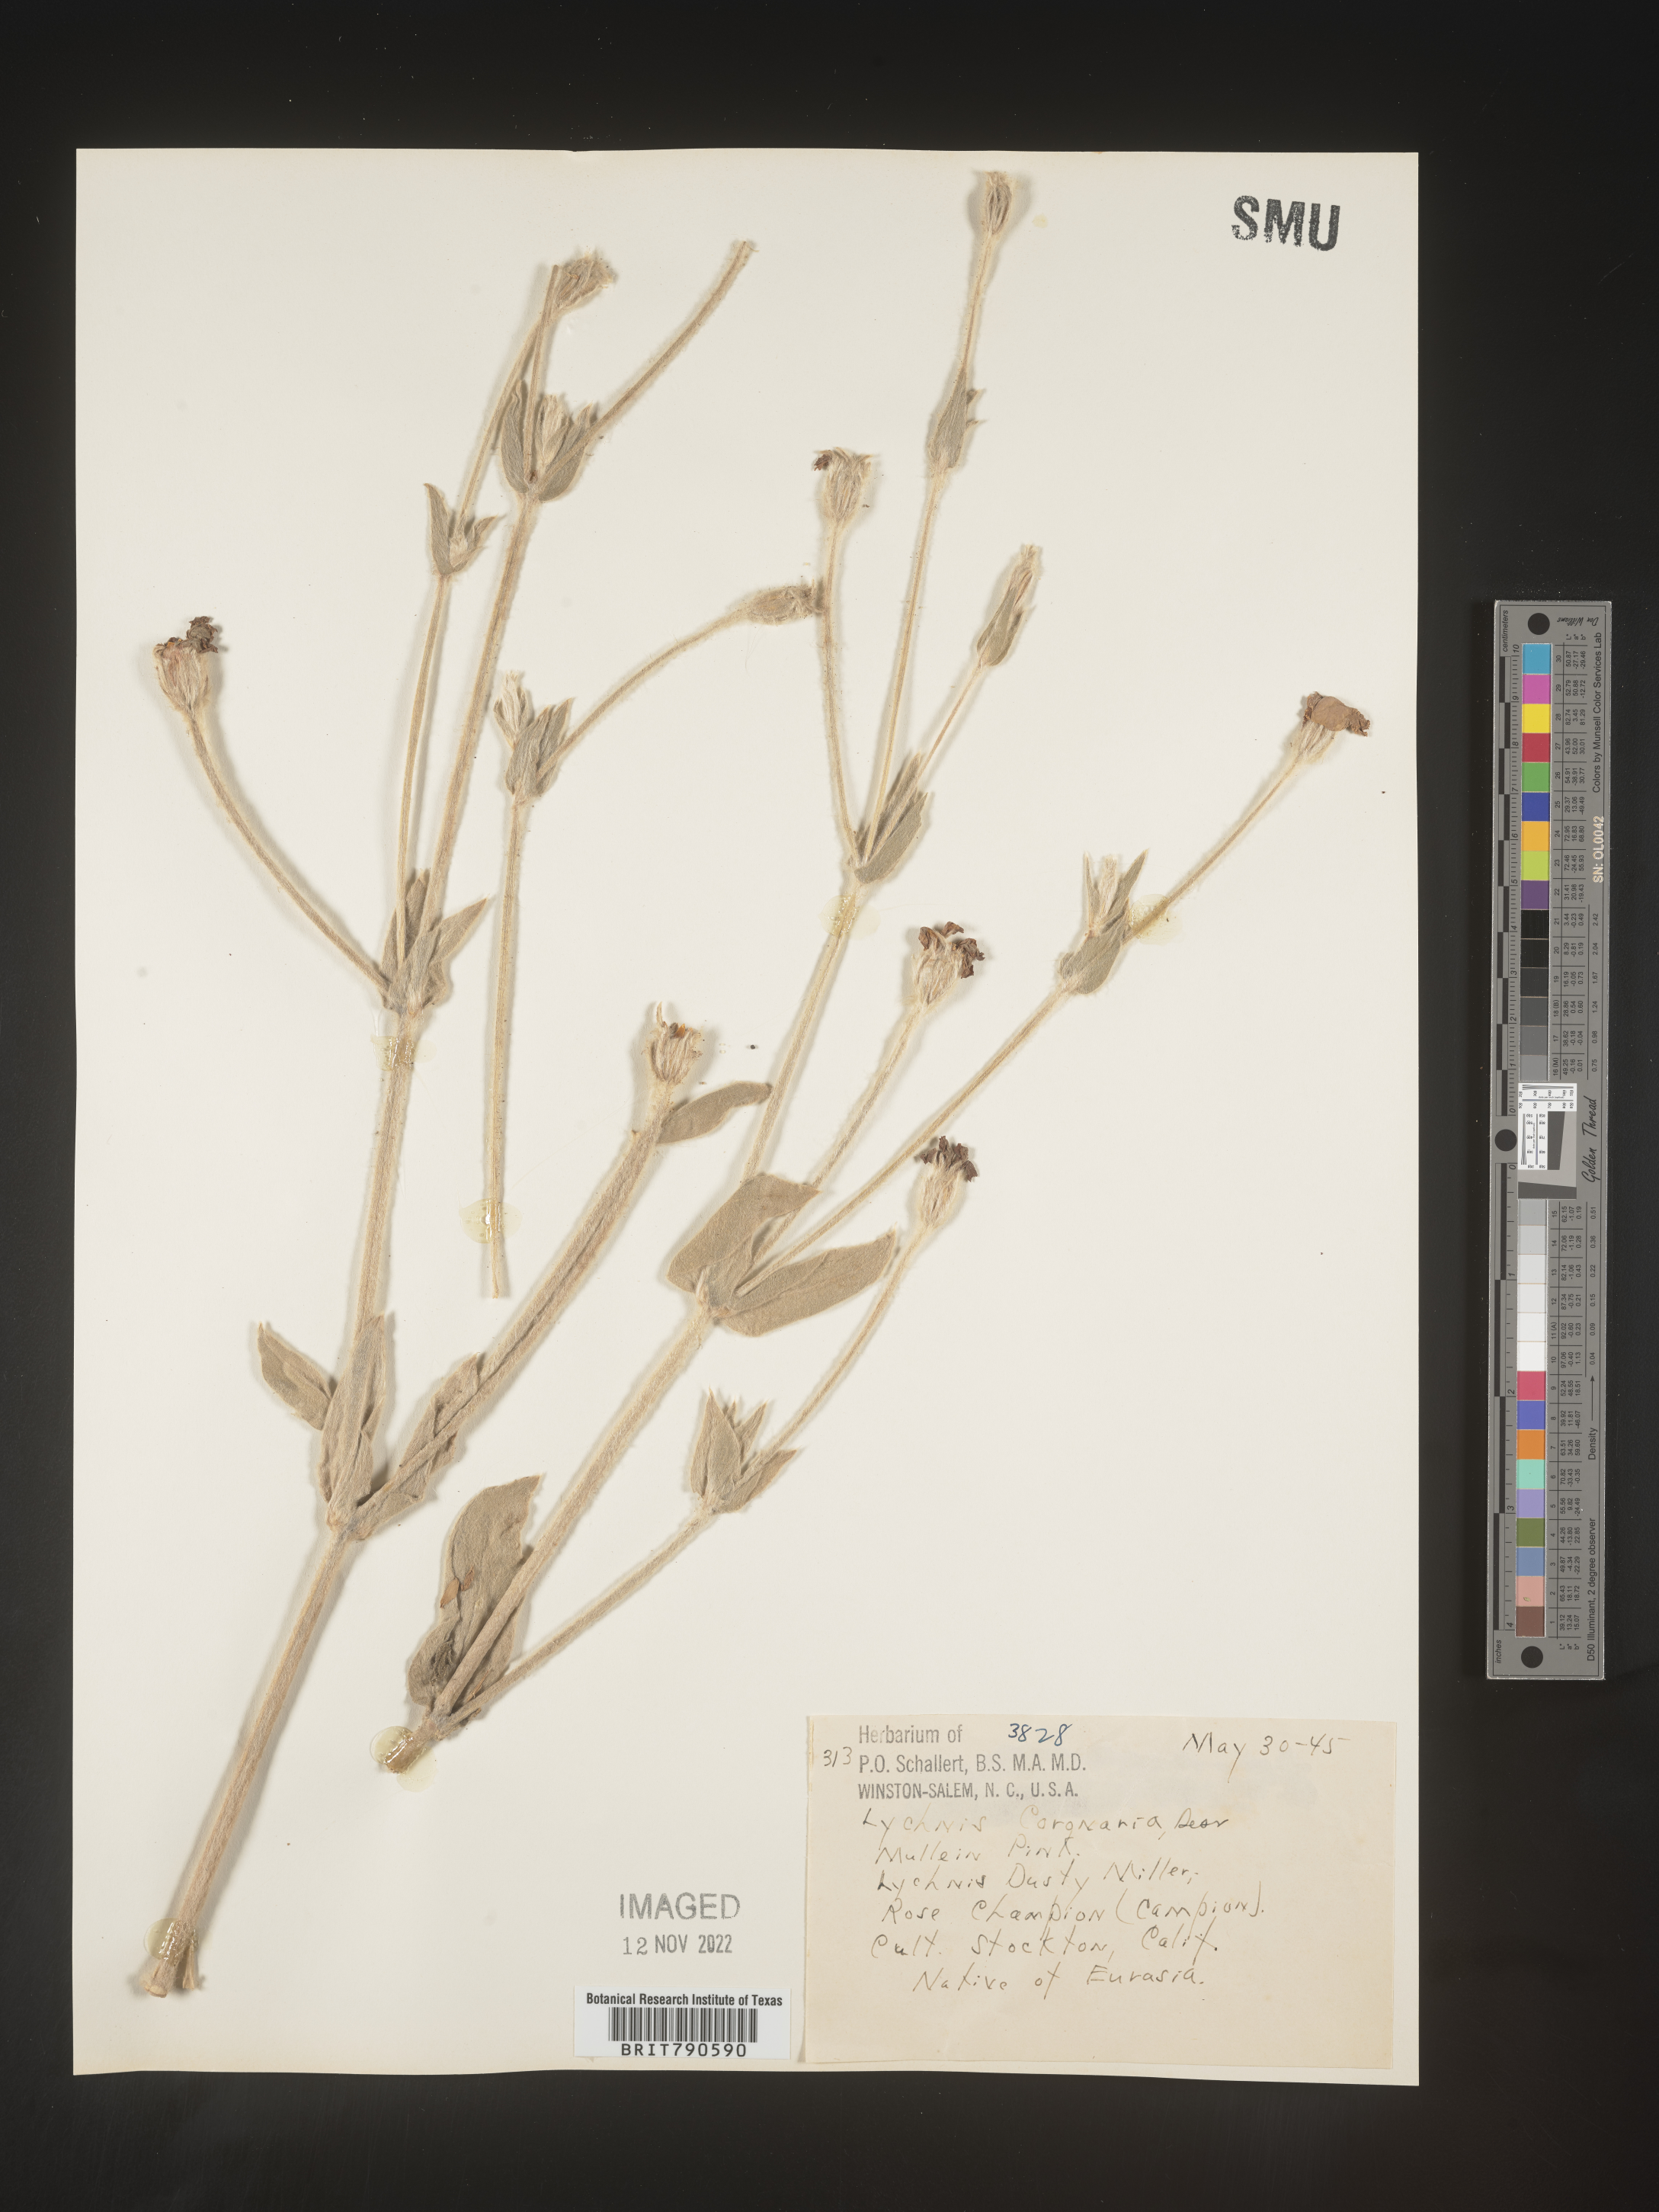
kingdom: Plantae
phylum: Tracheophyta
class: Magnoliopsida
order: Caryophyllales
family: Caryophyllaceae
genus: Silene
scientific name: Silene
